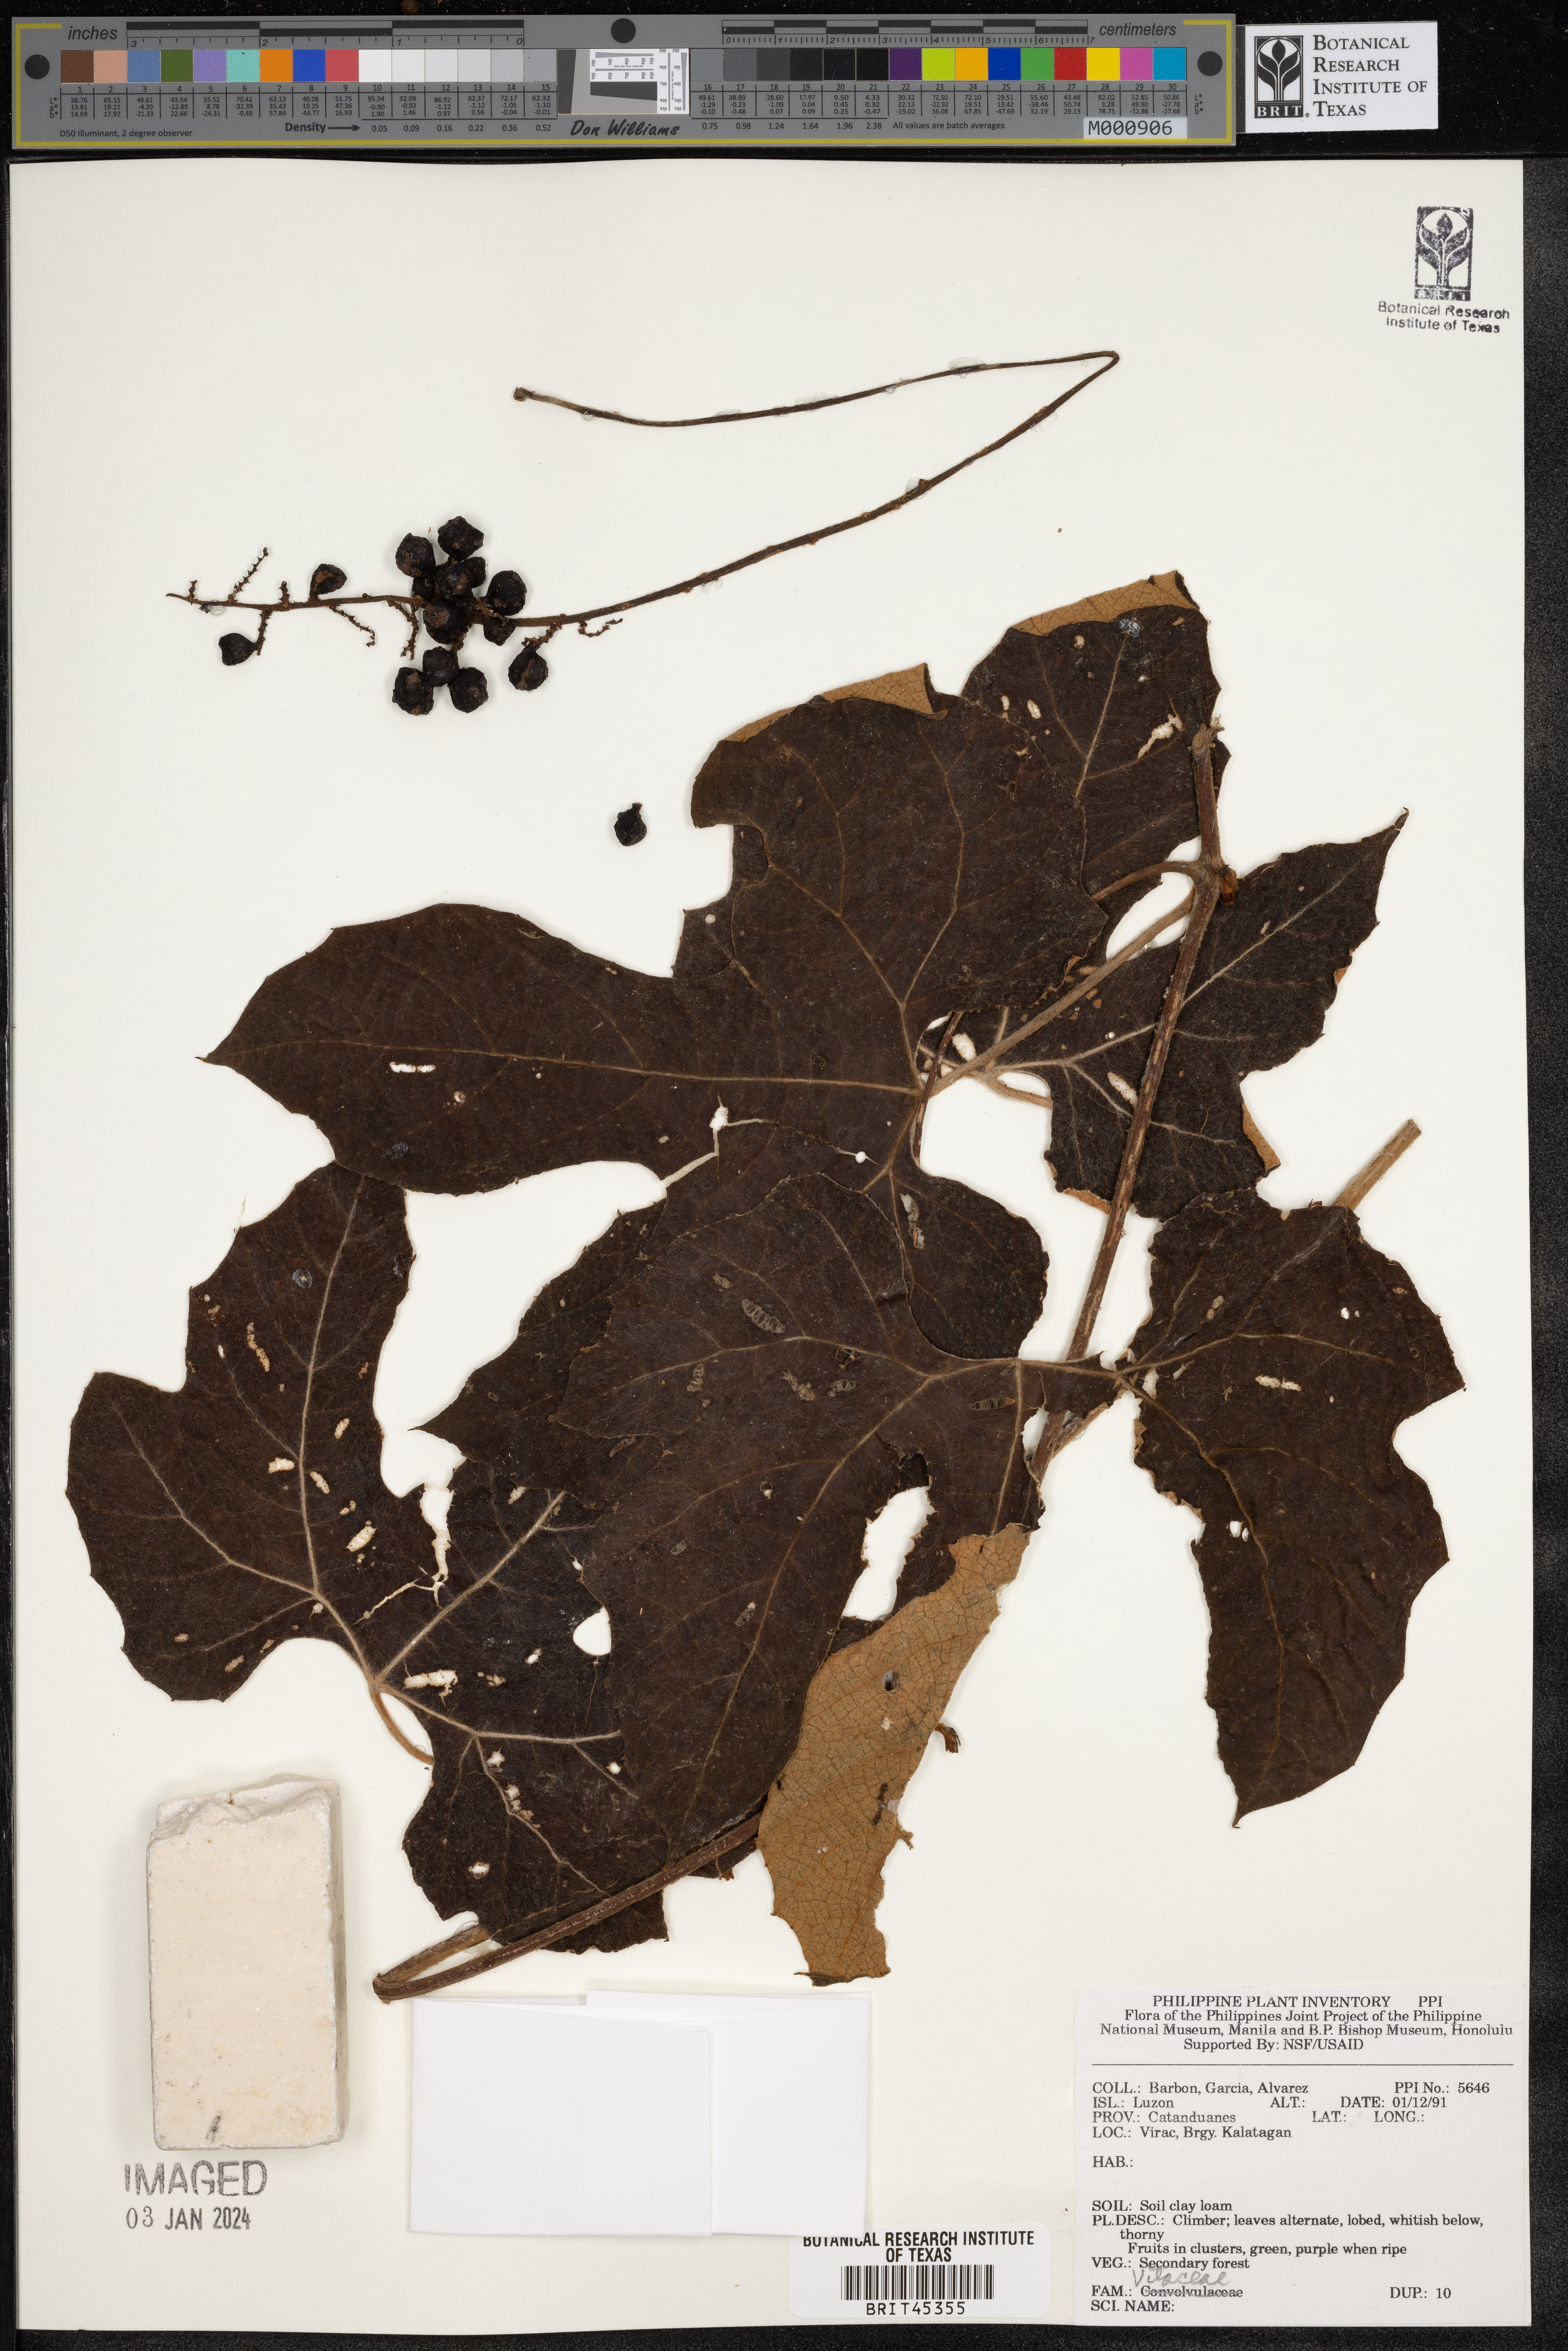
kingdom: Plantae
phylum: Tracheophyta
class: Magnoliopsida
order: Vitales
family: Vitaceae
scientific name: Vitaceae
